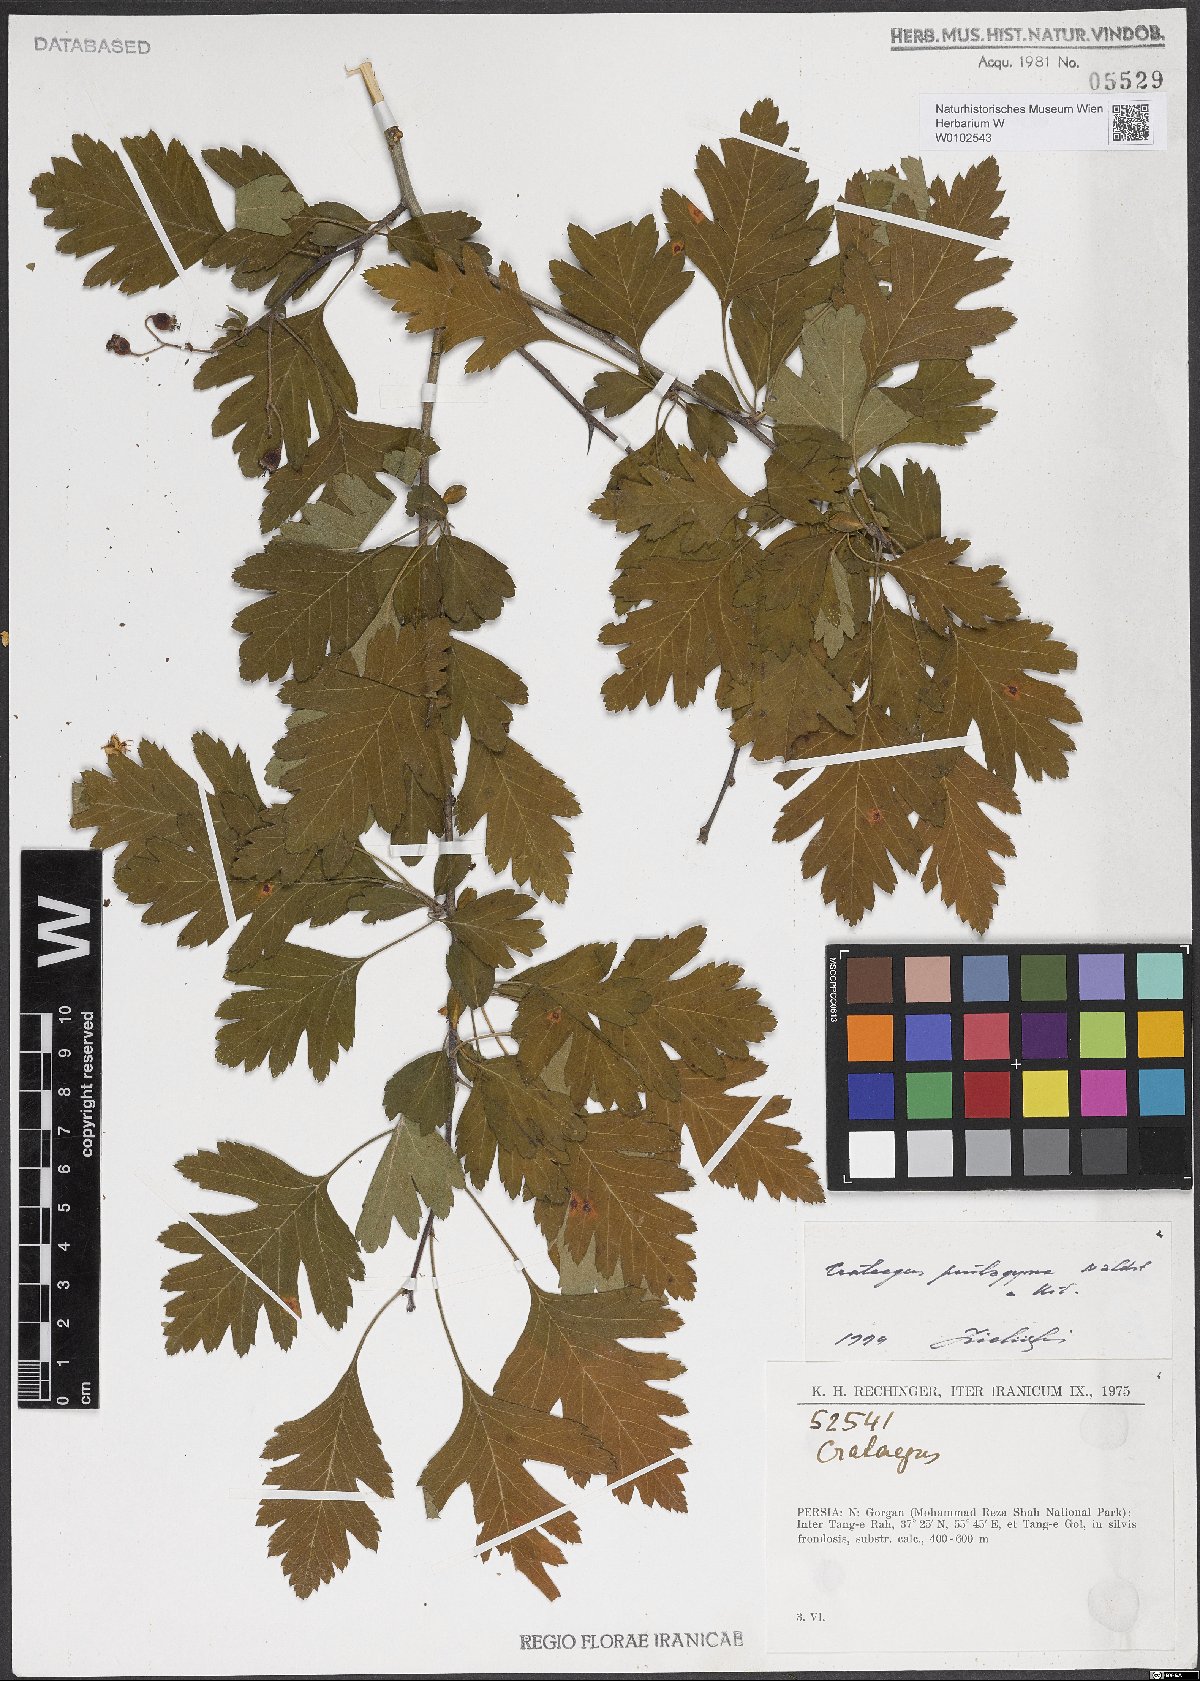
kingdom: Plantae
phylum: Tracheophyta
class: Magnoliopsida
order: Rosales
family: Rosaceae
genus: Crataegus
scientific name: Crataegus pentagyna
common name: Small-flowered black hawthorn
